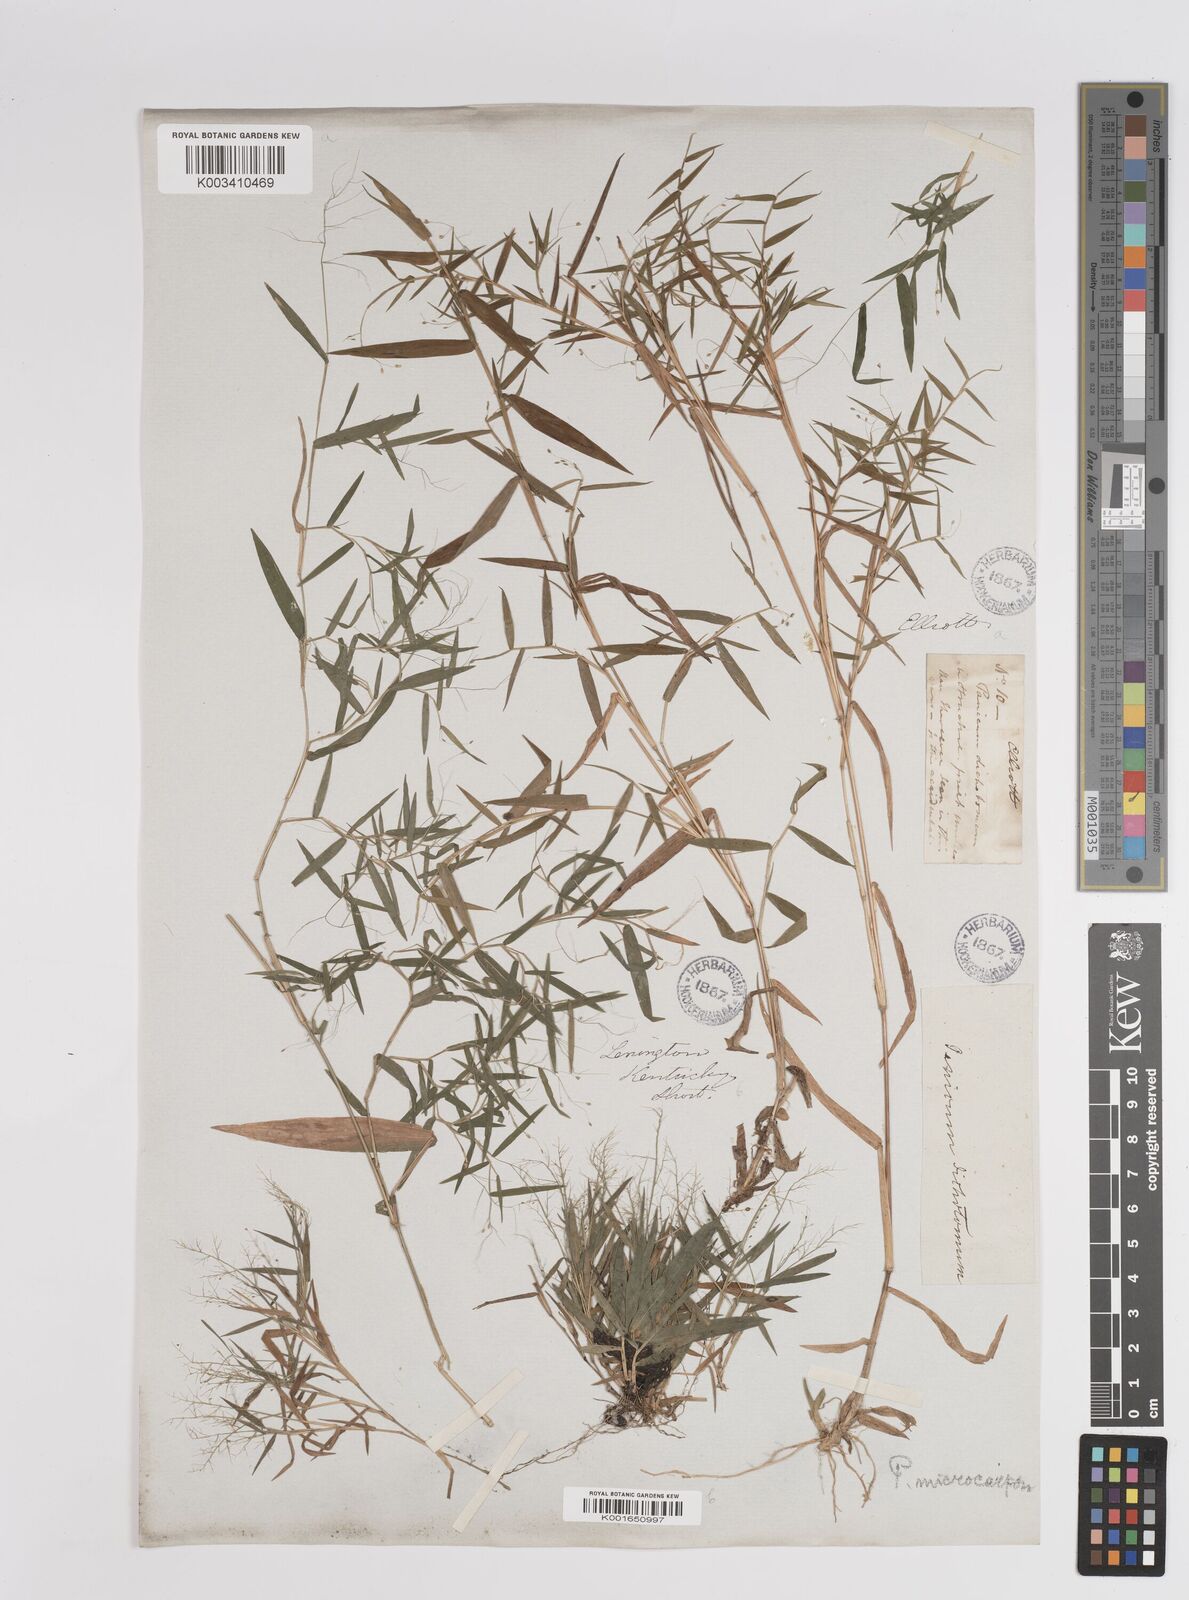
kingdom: Plantae
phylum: Tracheophyta
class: Liliopsida
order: Poales
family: Poaceae
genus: Dichanthelium
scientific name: Dichanthelium polyanthes
